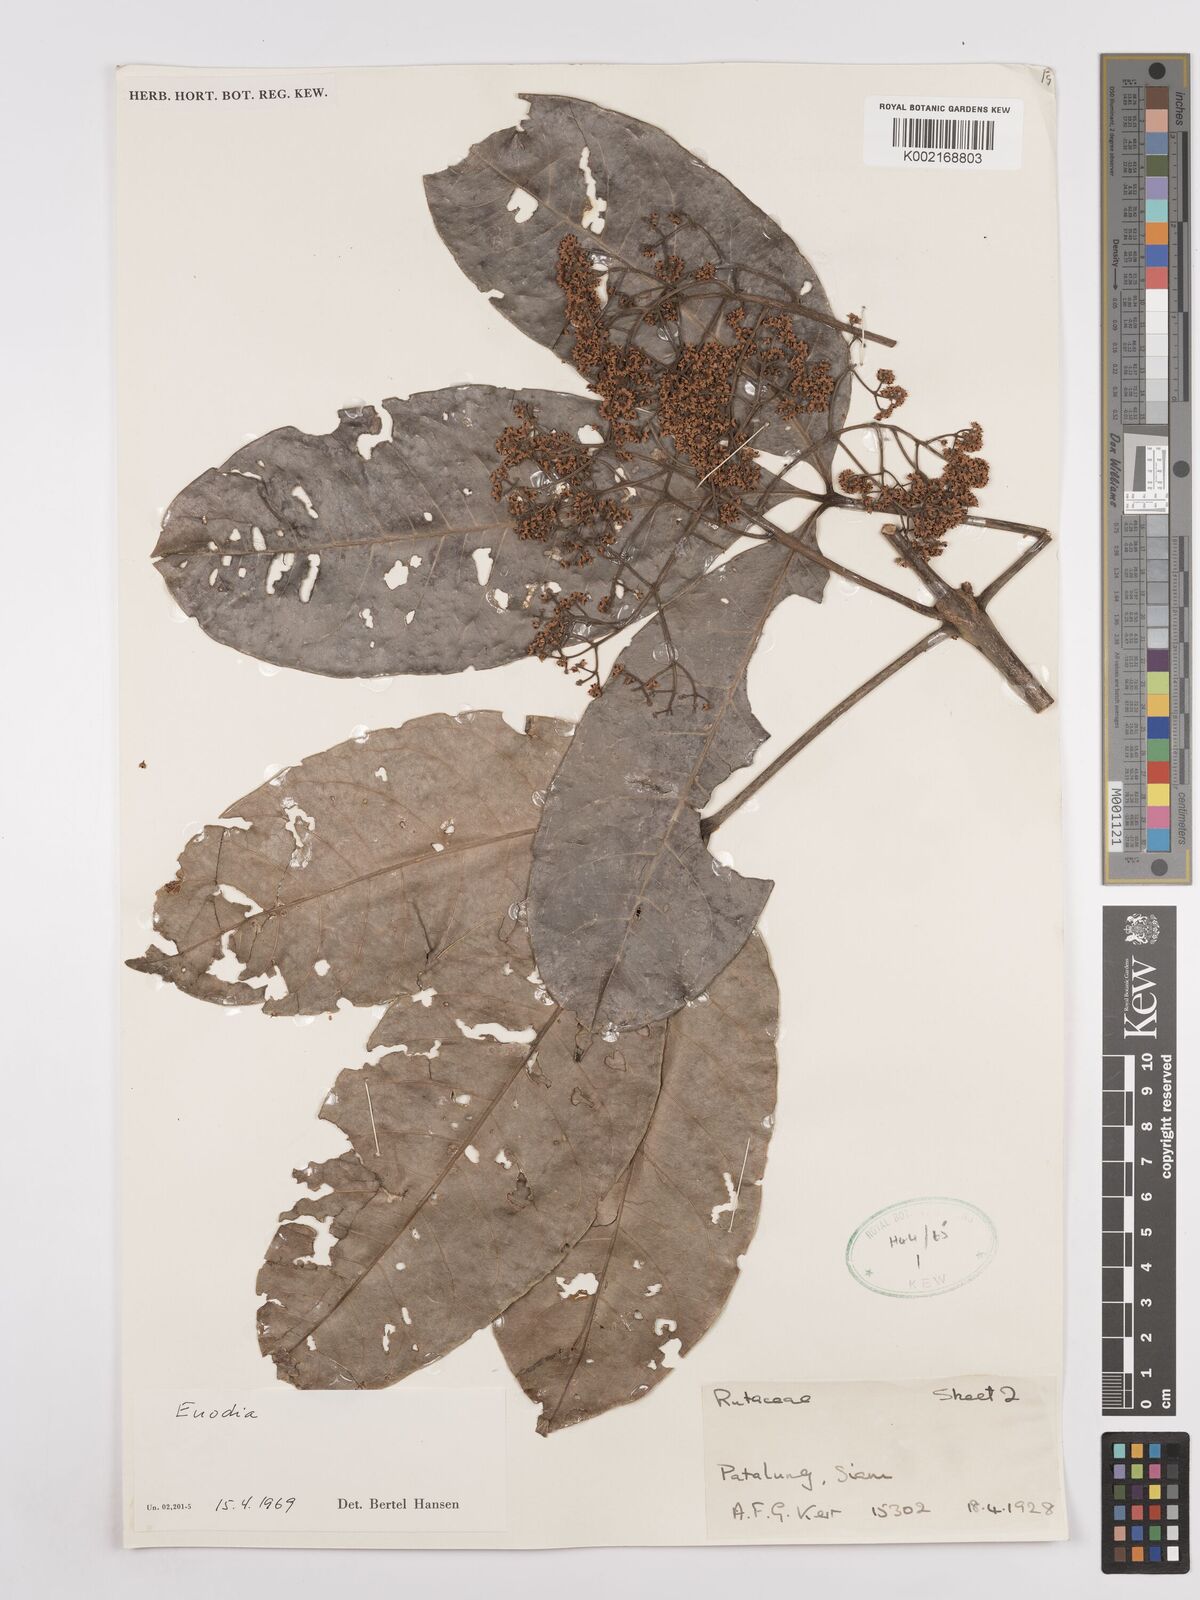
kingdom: Plantae
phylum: Tracheophyta
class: Magnoliopsida
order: Sapindales
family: Rutaceae
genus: Euodia
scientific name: Euodia
